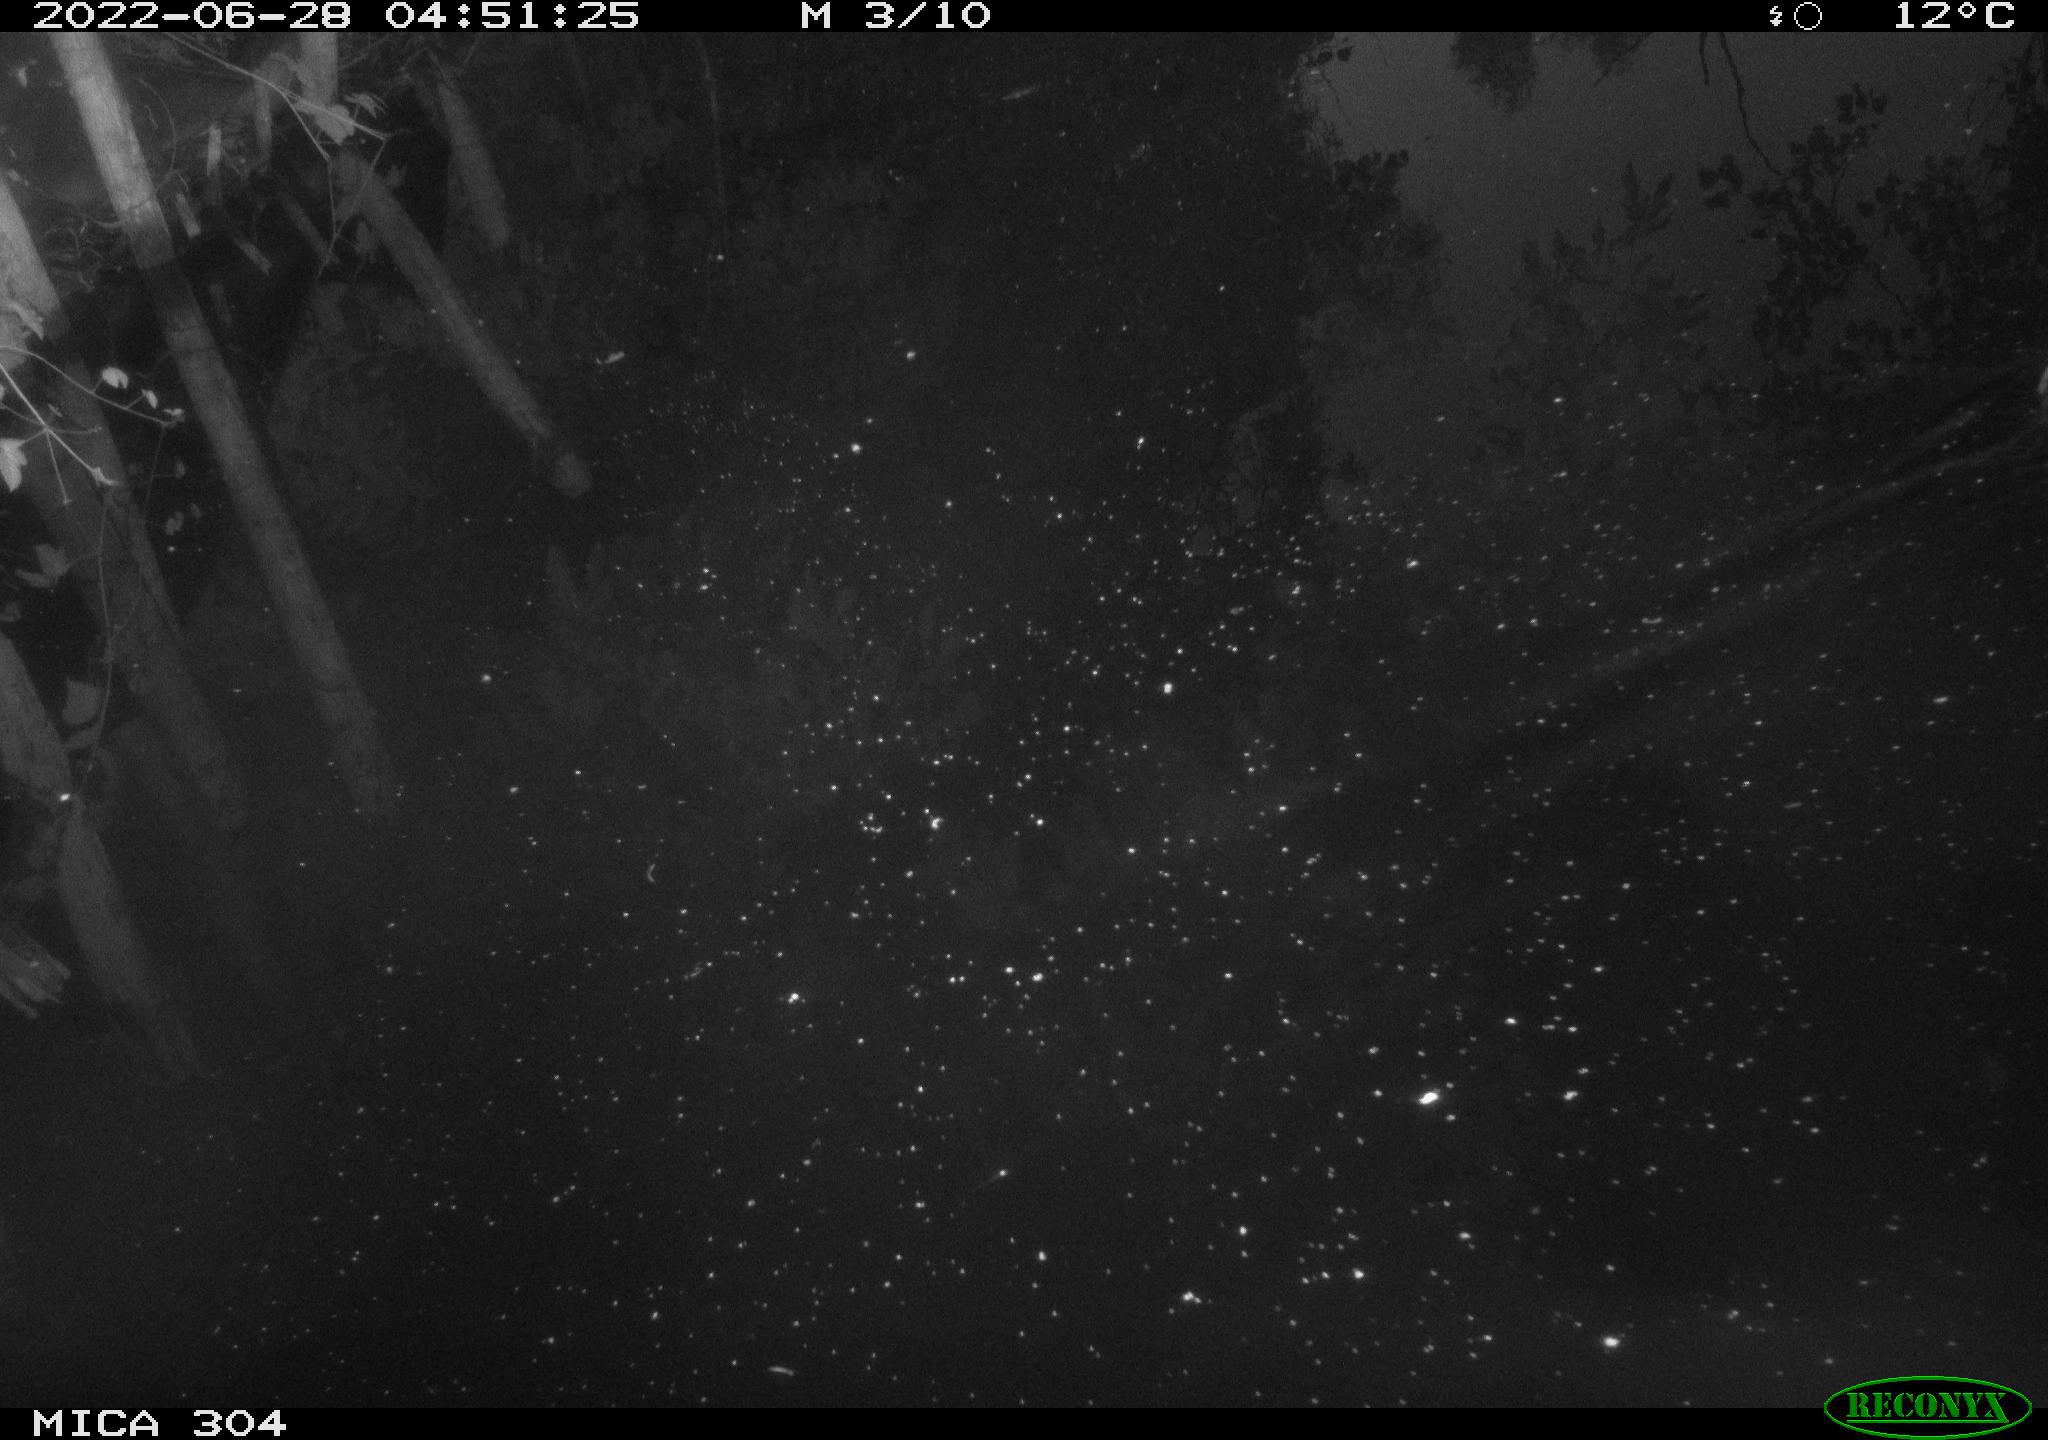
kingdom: Animalia
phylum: Chordata
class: Aves
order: Gruiformes
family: Rallidae
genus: Gallinula
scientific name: Gallinula chloropus
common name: Common moorhen
